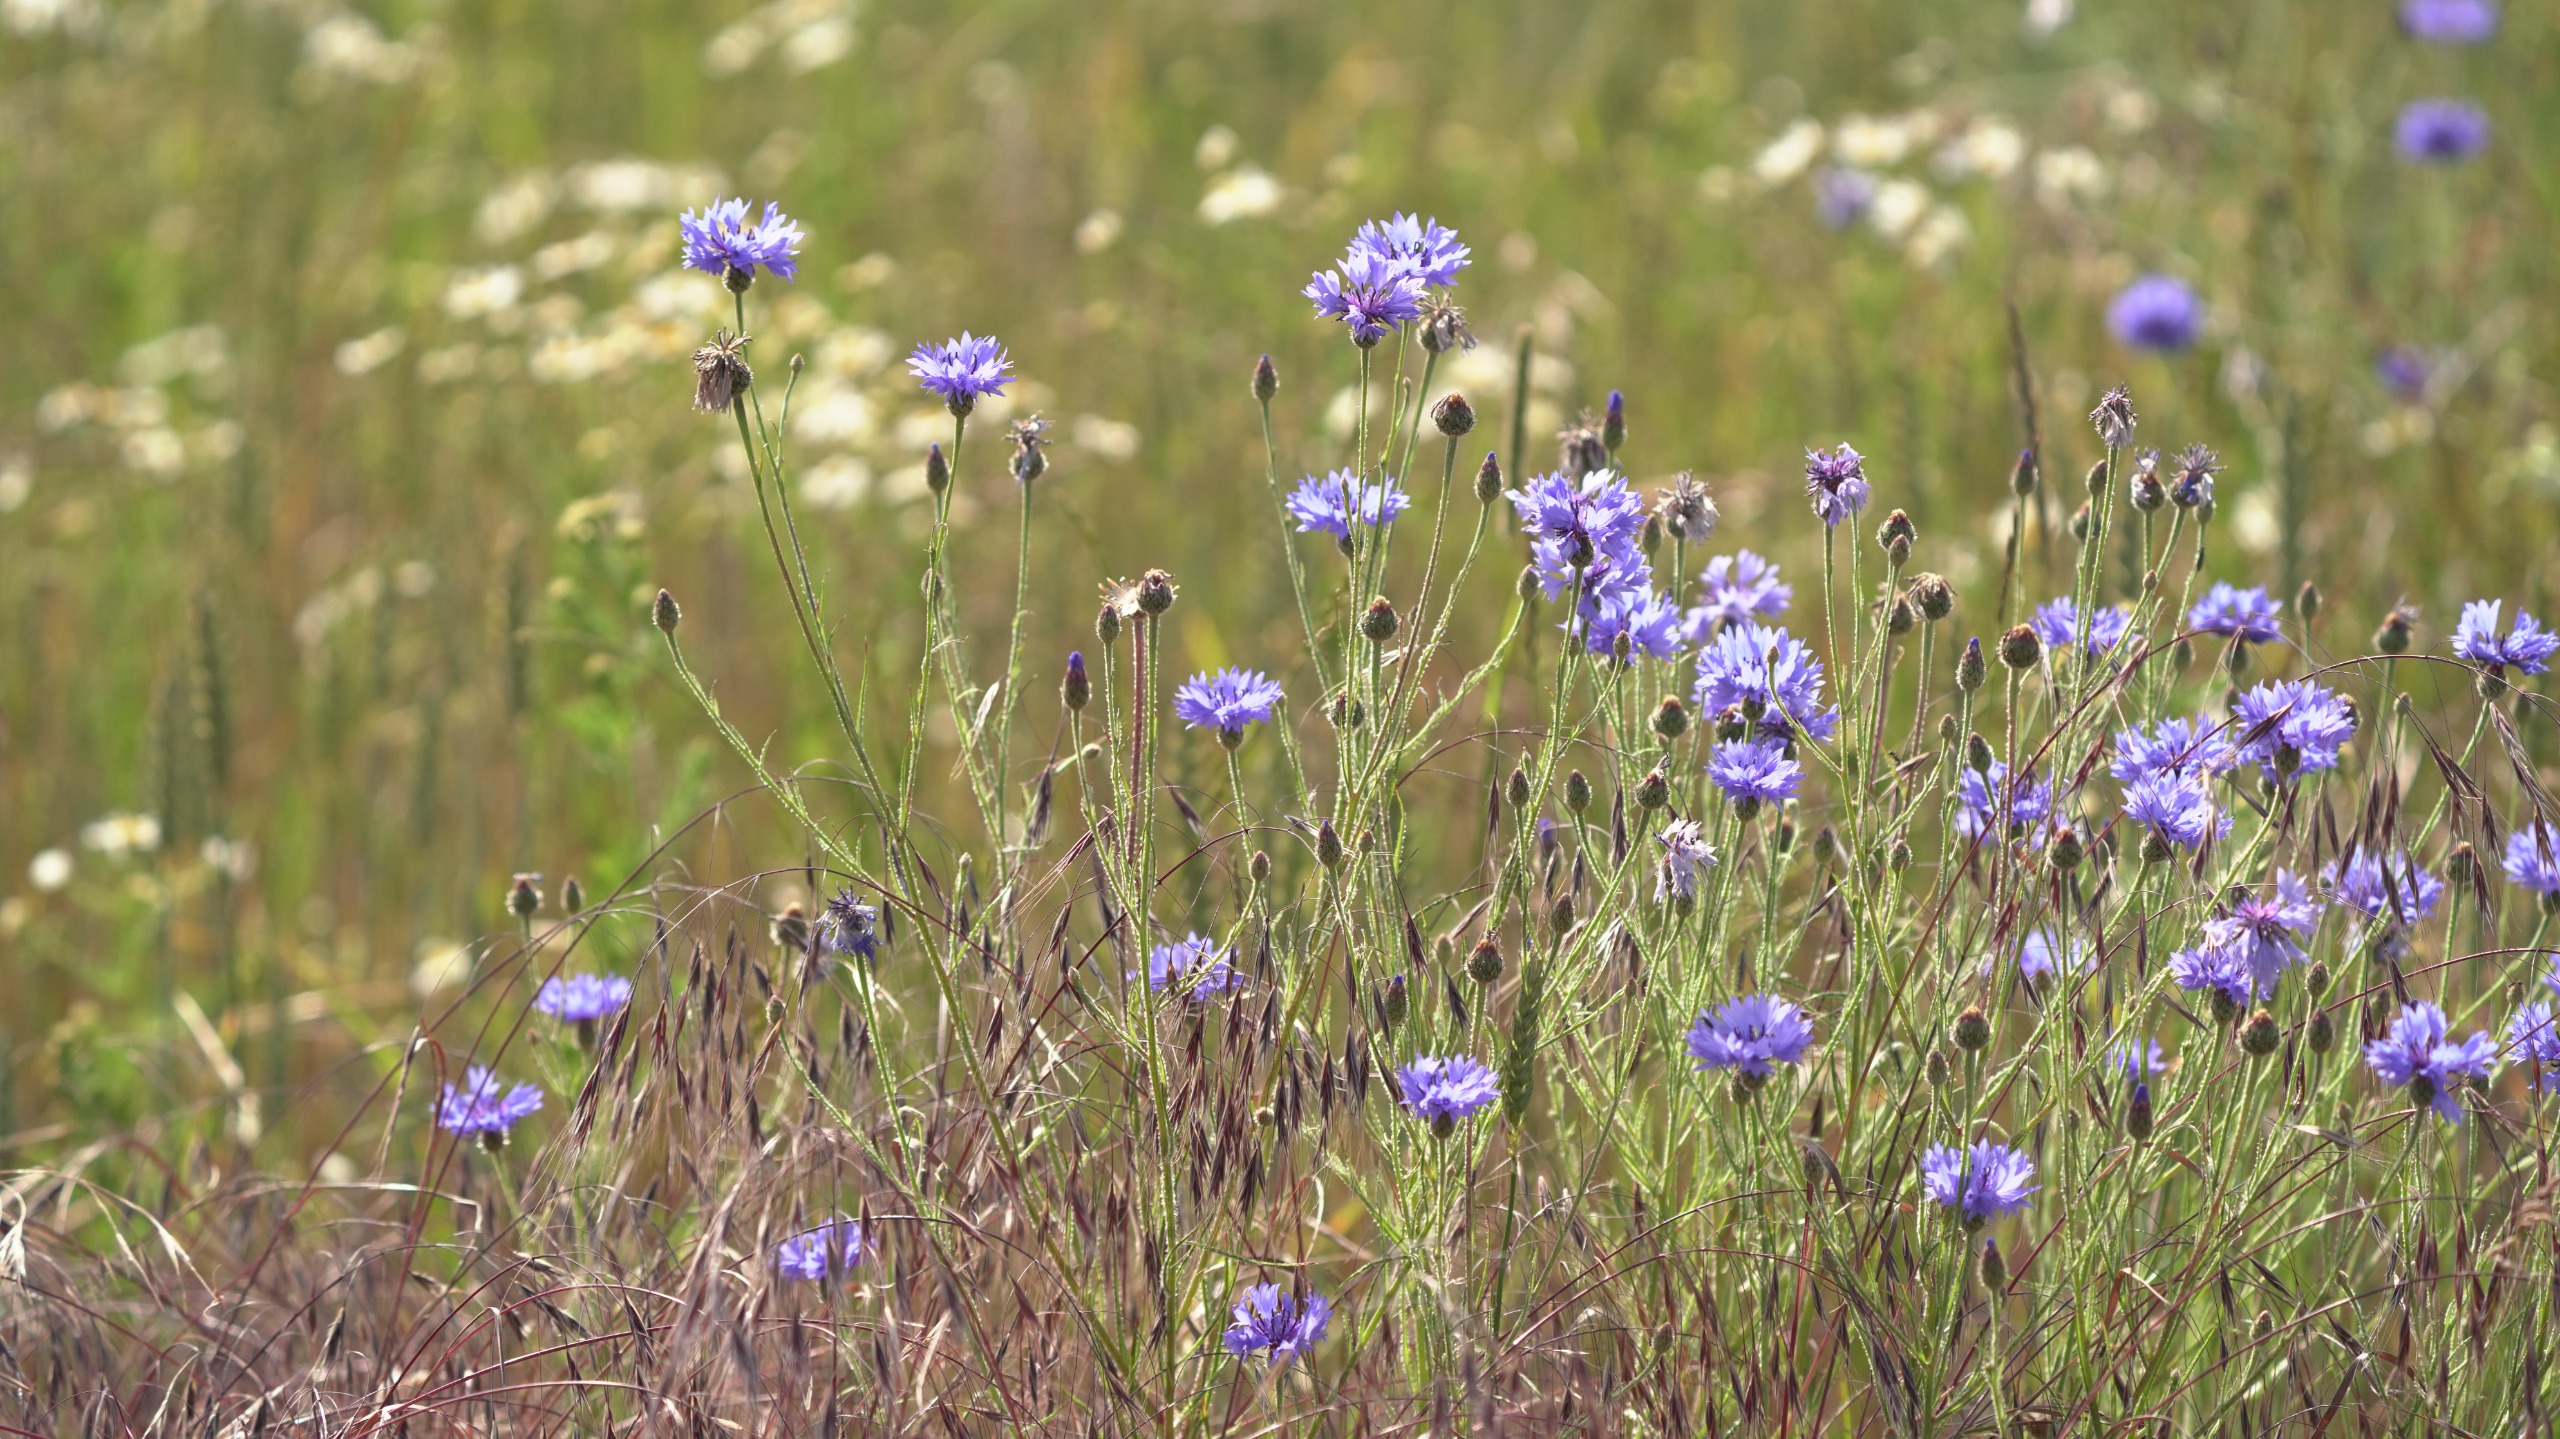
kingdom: Plantae
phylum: Tracheophyta
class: Magnoliopsida
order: Asterales
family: Asteraceae
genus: Centaurea
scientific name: Centaurea cyanus
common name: Kornblomst
